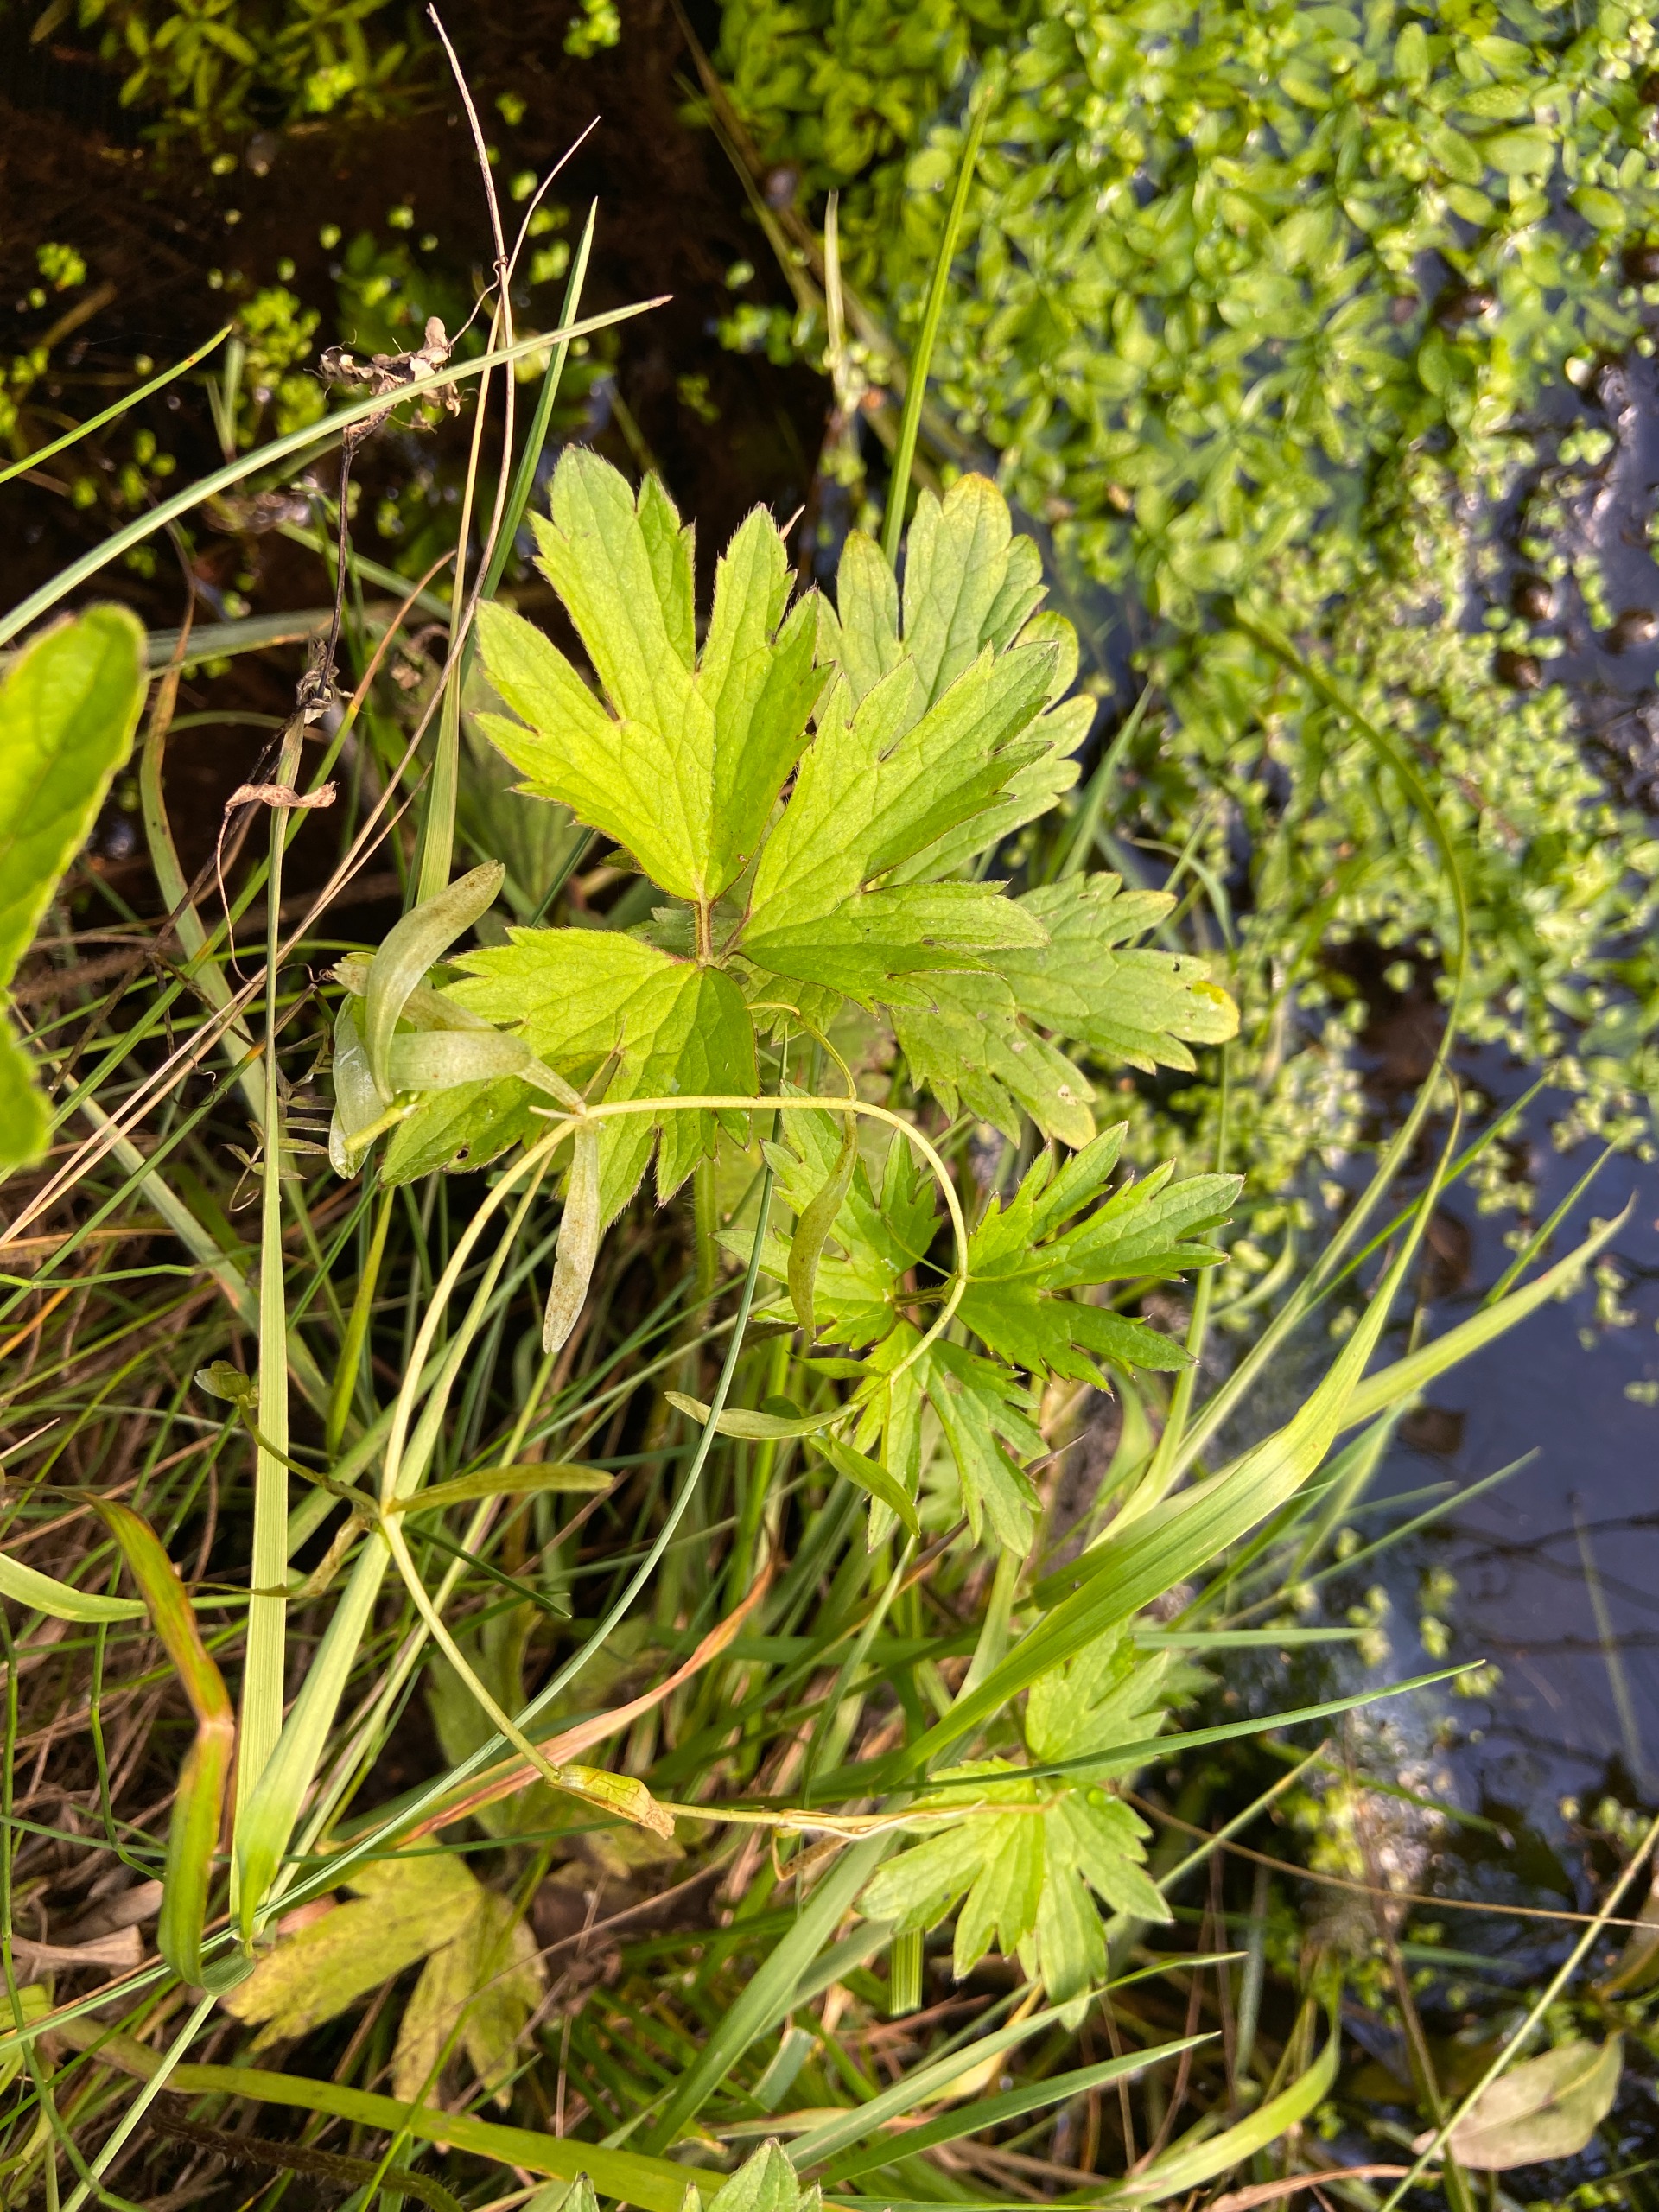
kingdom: Plantae
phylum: Tracheophyta
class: Magnoliopsida
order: Ranunculales
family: Ranunculaceae
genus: Ranunculus
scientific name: Ranunculus repens
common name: Lav ranunkel
